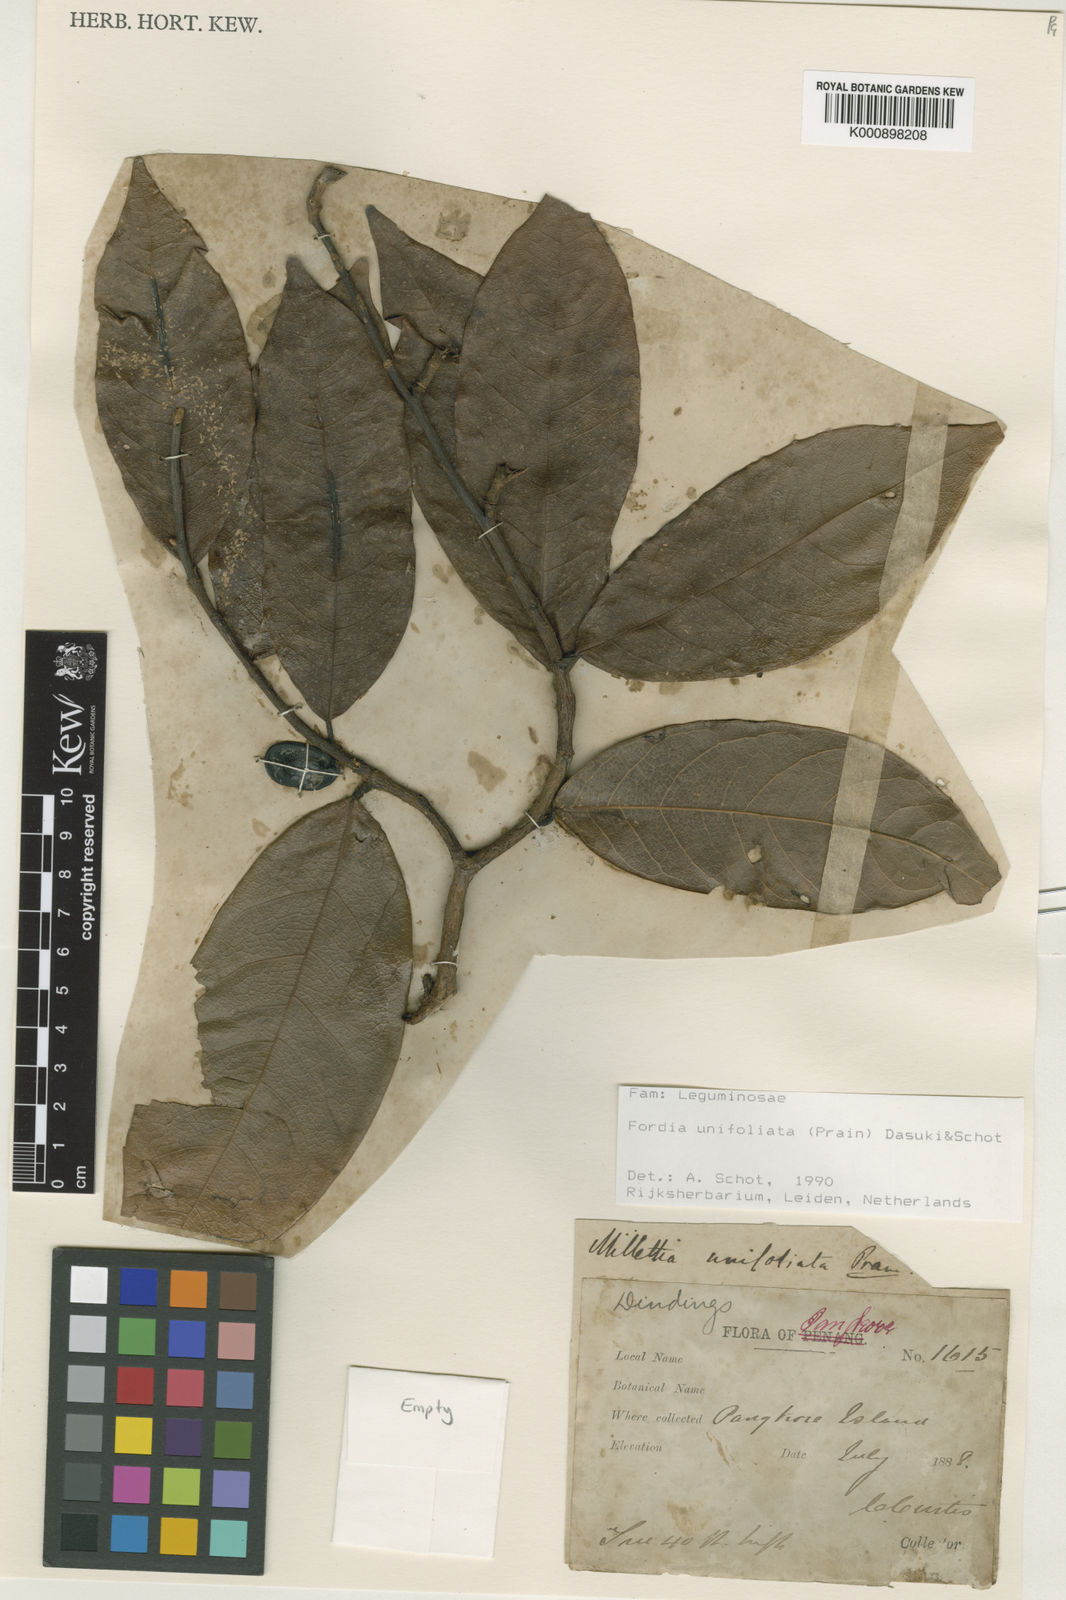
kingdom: Plantae
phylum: Tracheophyta
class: Magnoliopsida
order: Fabales
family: Fabaceae
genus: Imbralyx
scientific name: Imbralyx unifoliatus
